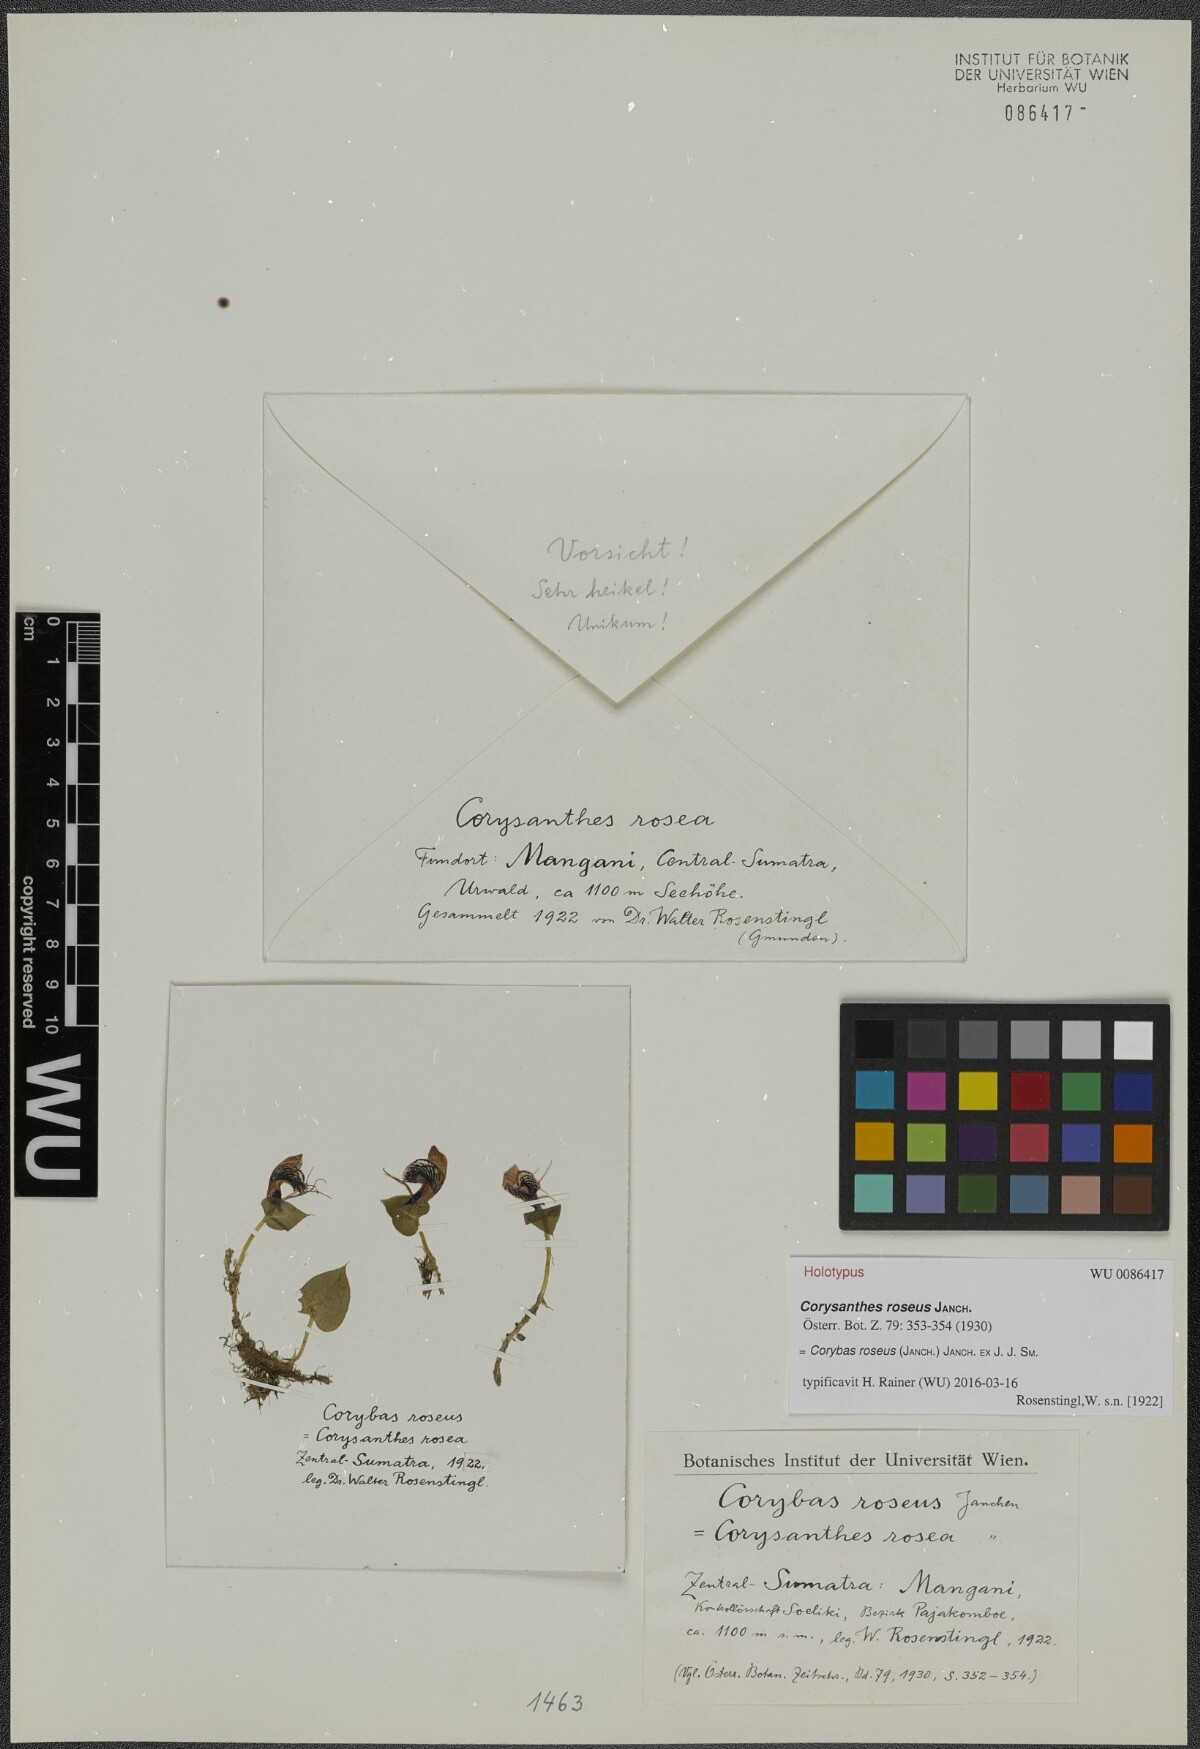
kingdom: Plantae
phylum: Tracheophyta
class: Liliopsida
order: Asparagales
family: Orchidaceae
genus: Corybas
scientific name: Corybas roseus
